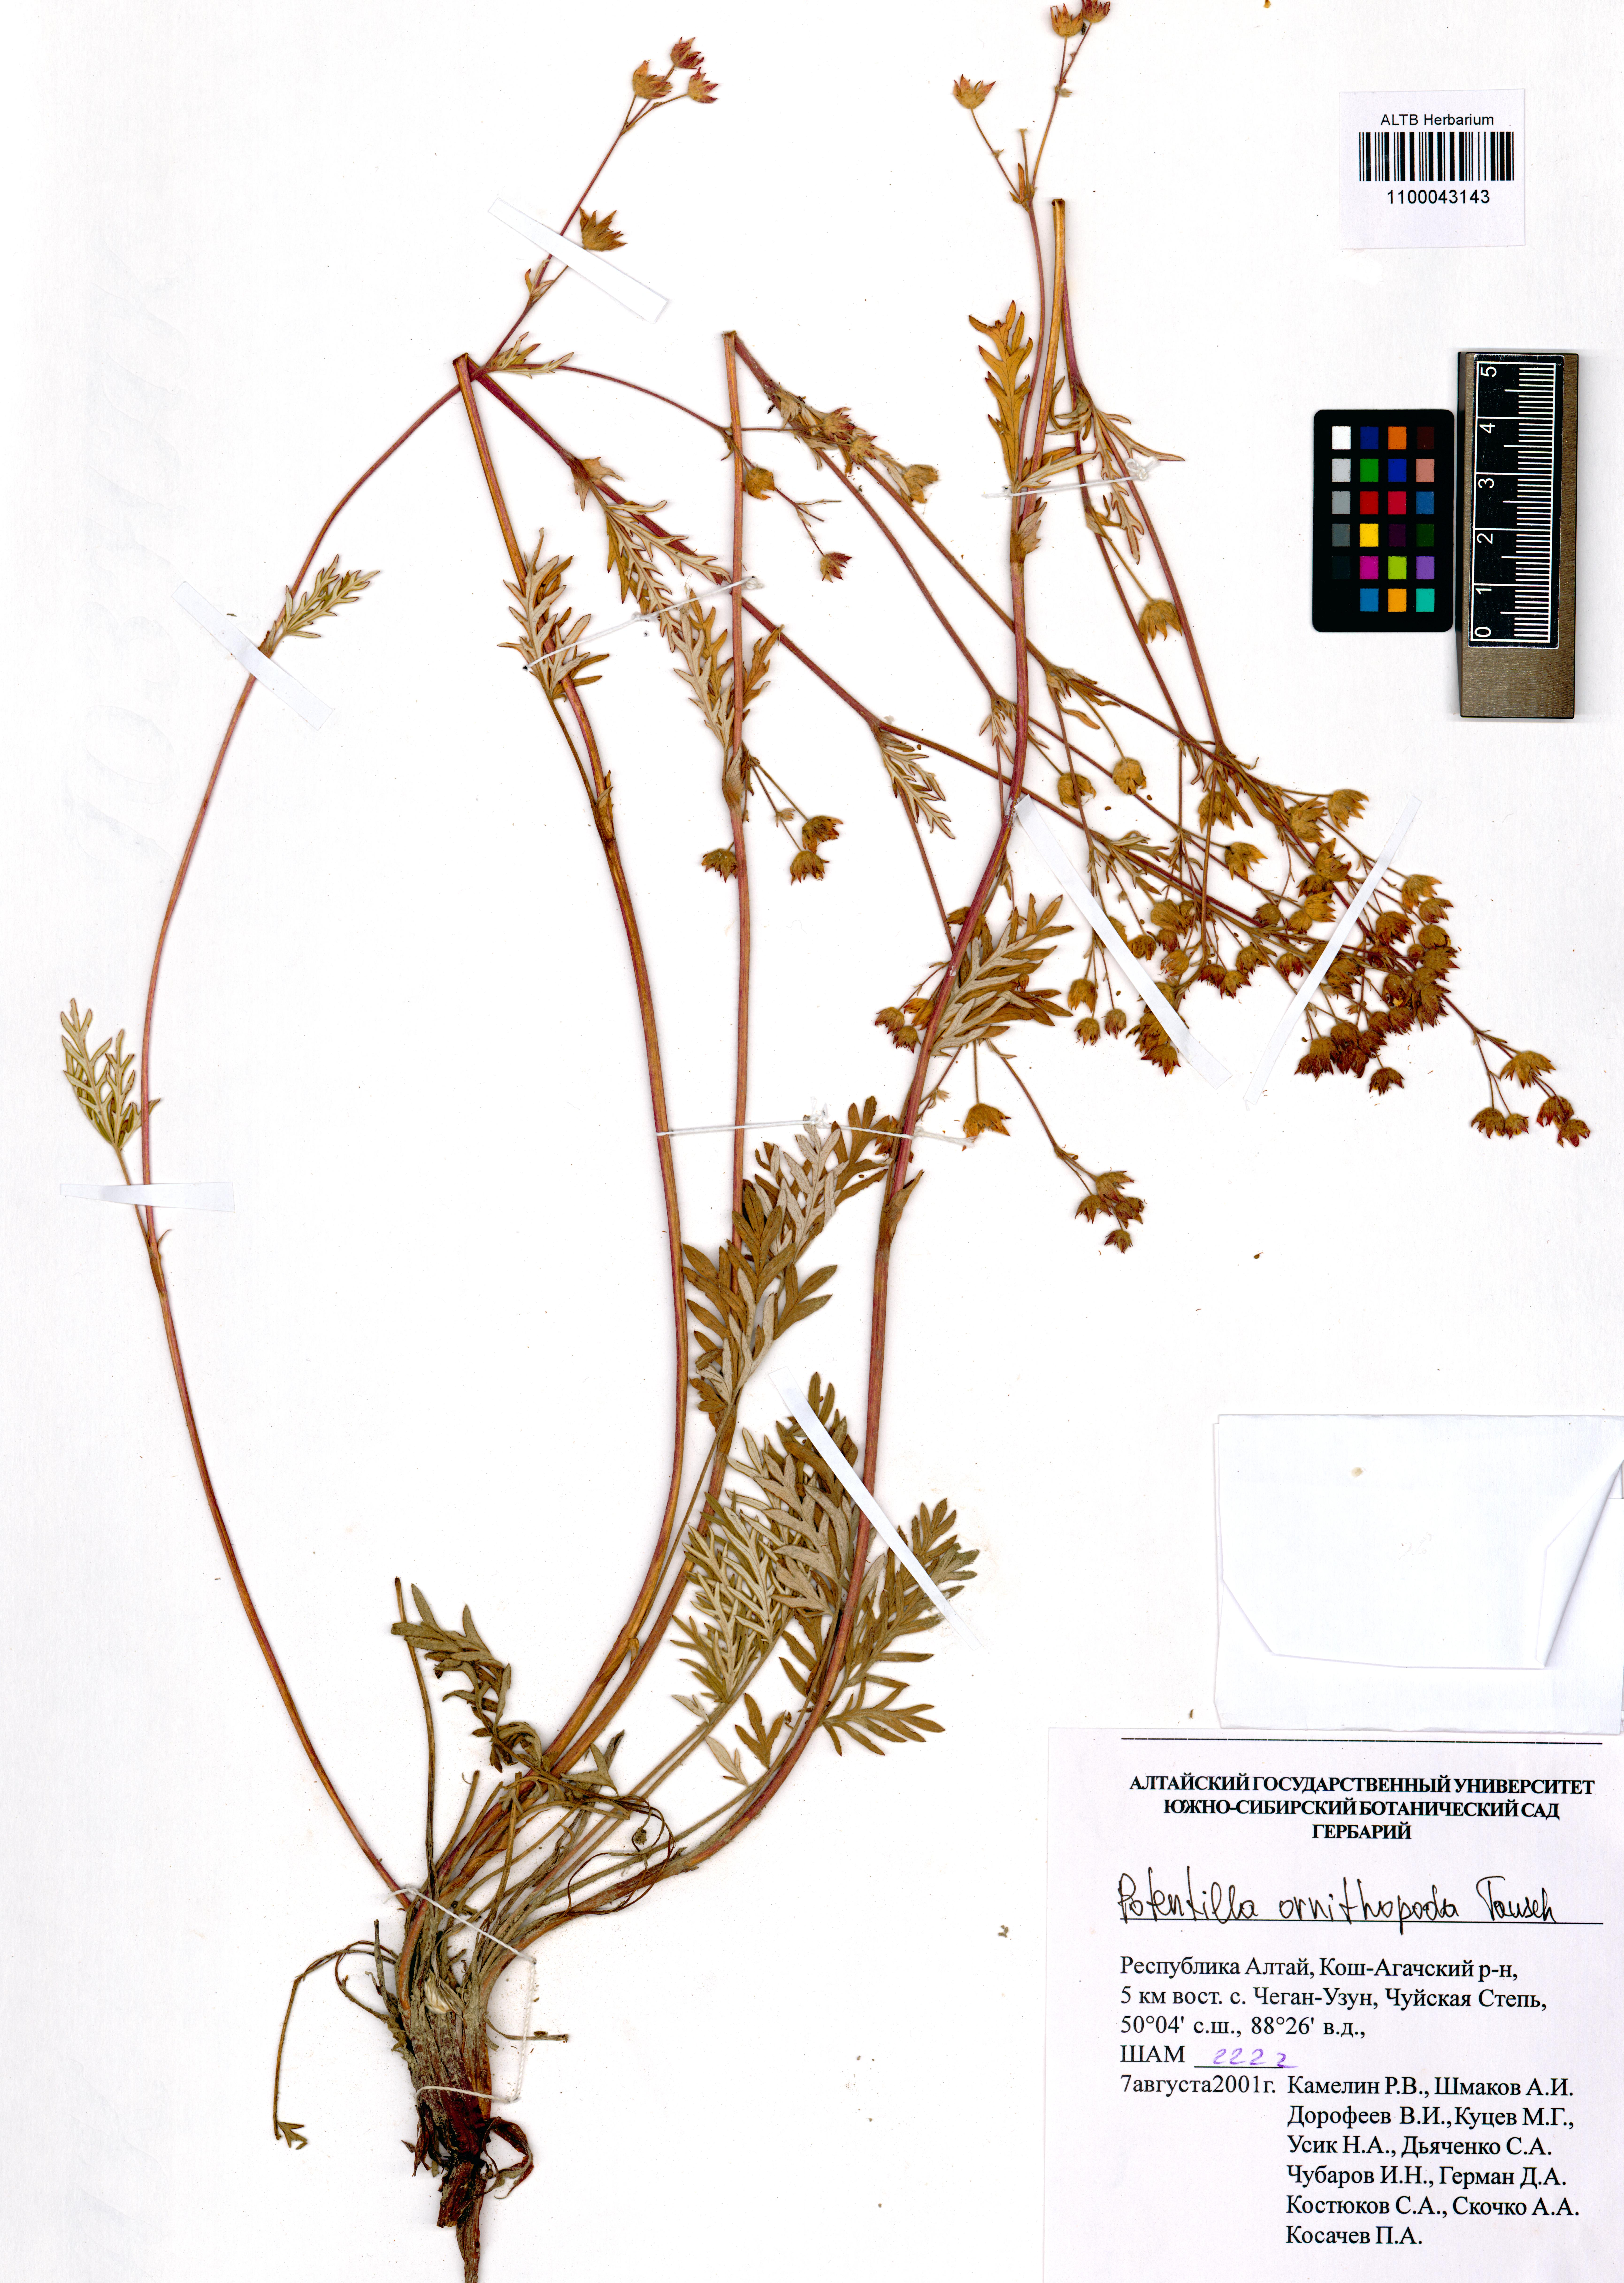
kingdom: Plantae
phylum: Tracheophyta
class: Magnoliopsida
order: Rosales
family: Rosaceae
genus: Potentilla
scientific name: Potentilla ornithopoda
